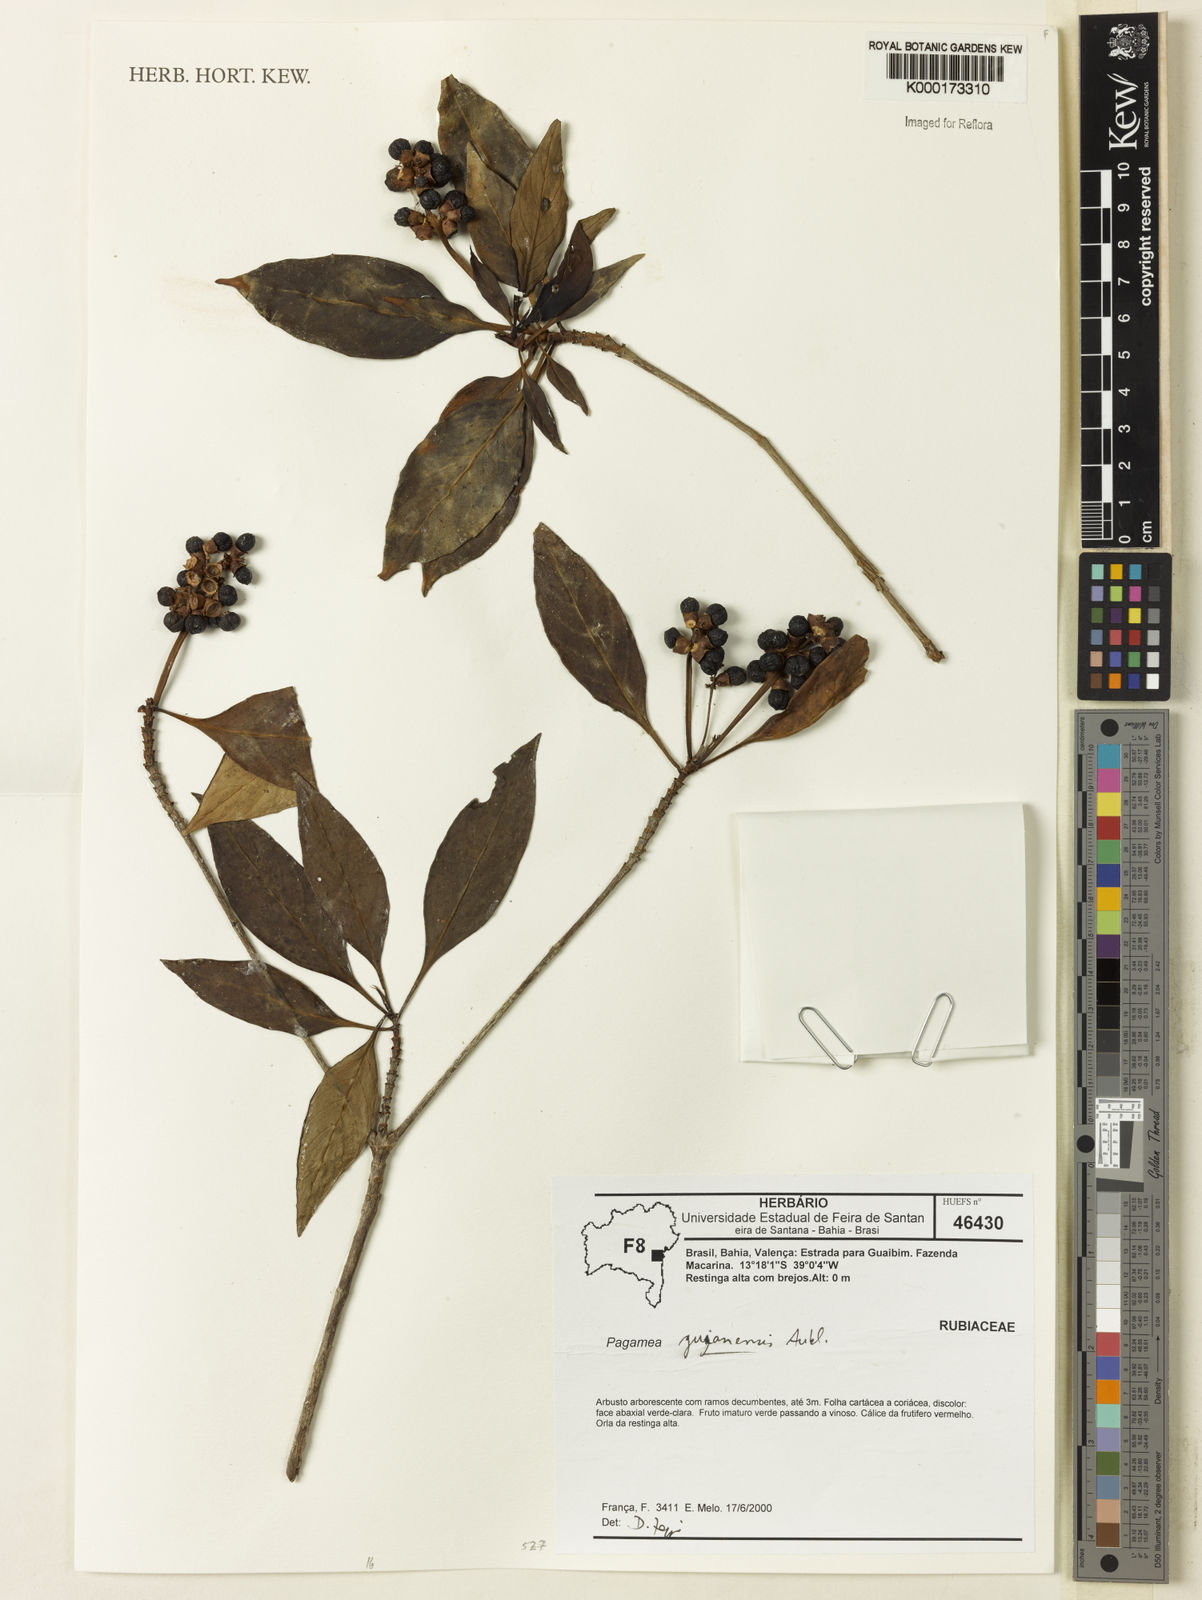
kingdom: Plantae
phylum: Tracheophyta
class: Magnoliopsida
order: Gentianales
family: Rubiaceae
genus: Pagamea
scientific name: Pagamea guianensis
